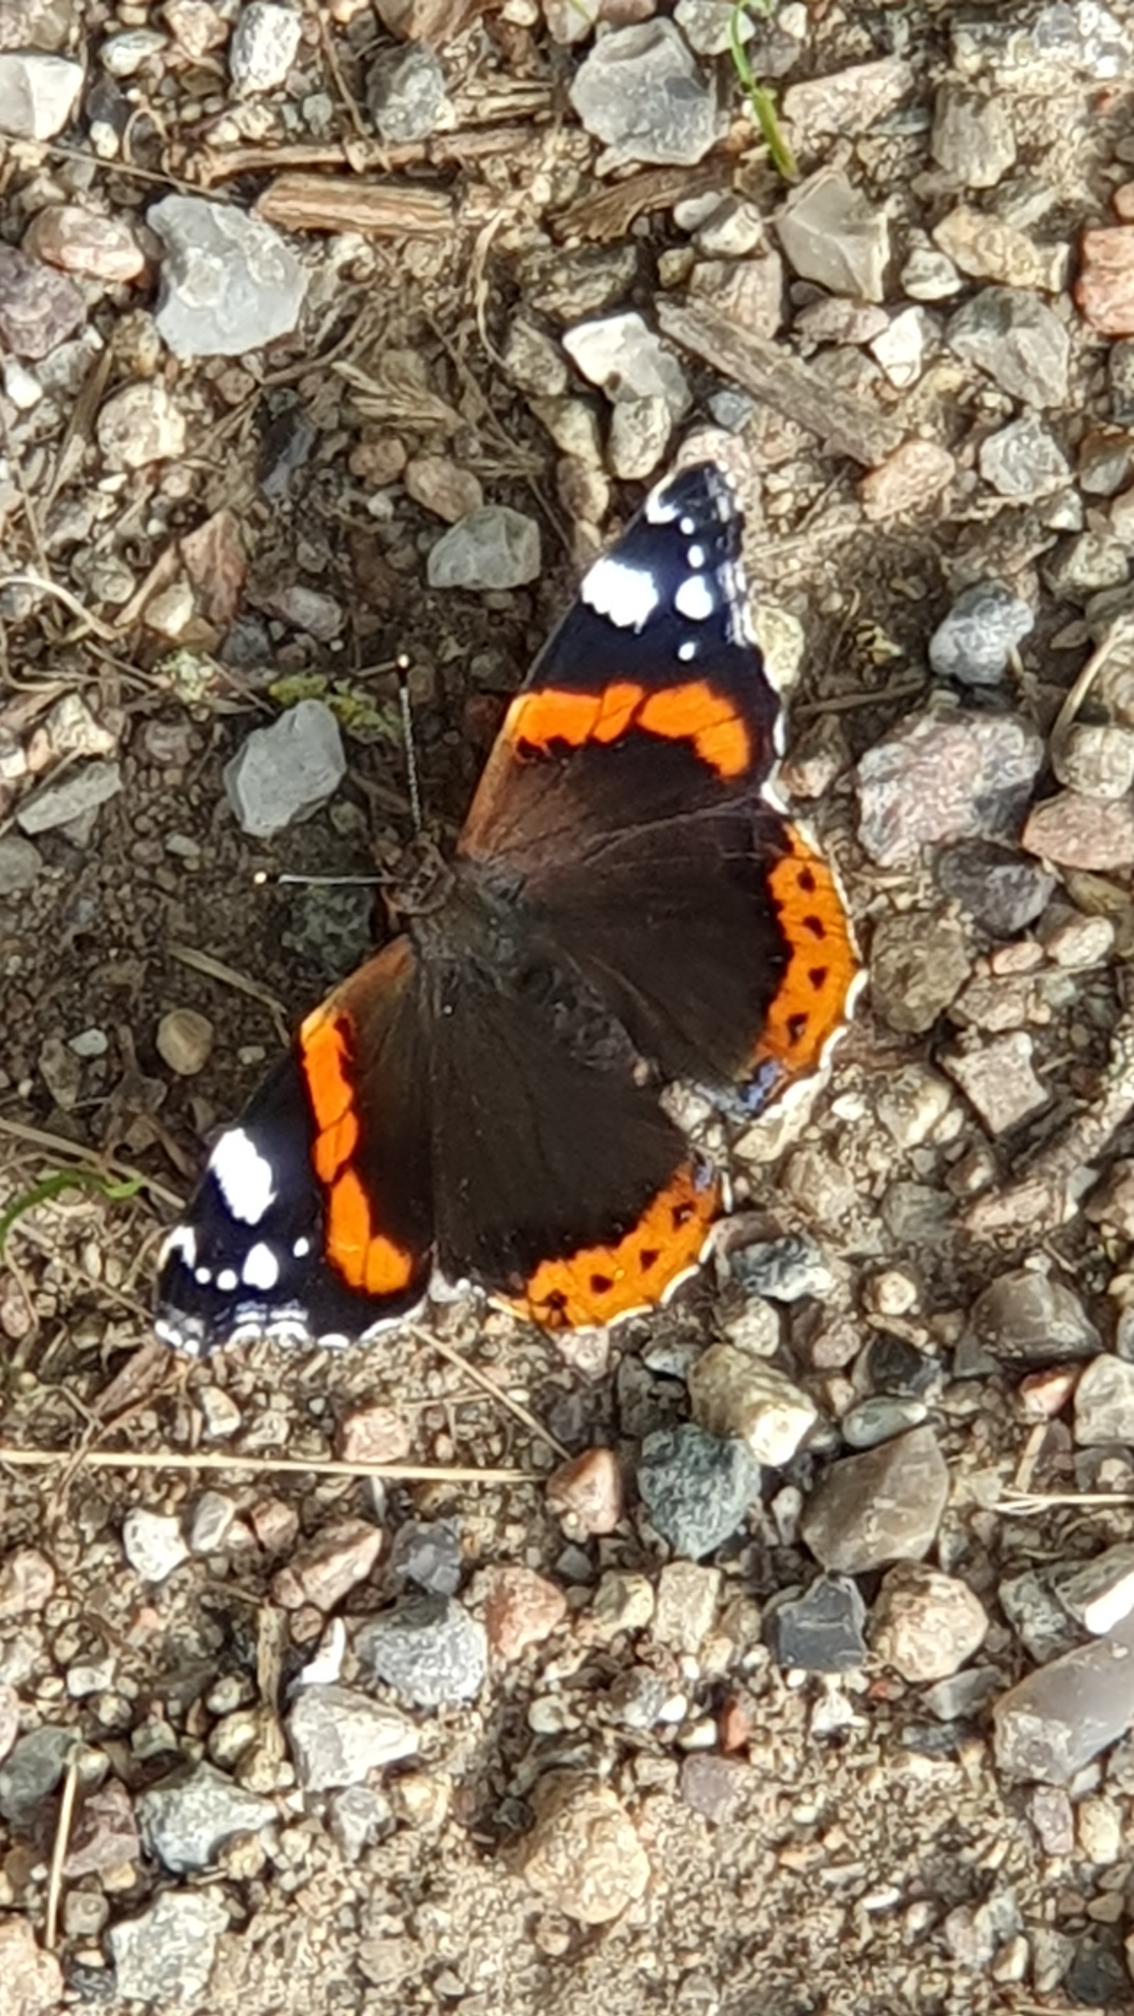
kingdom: Animalia
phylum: Arthropoda
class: Insecta
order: Lepidoptera
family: Nymphalidae
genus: Vanessa
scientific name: Vanessa atalanta
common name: Admiral
